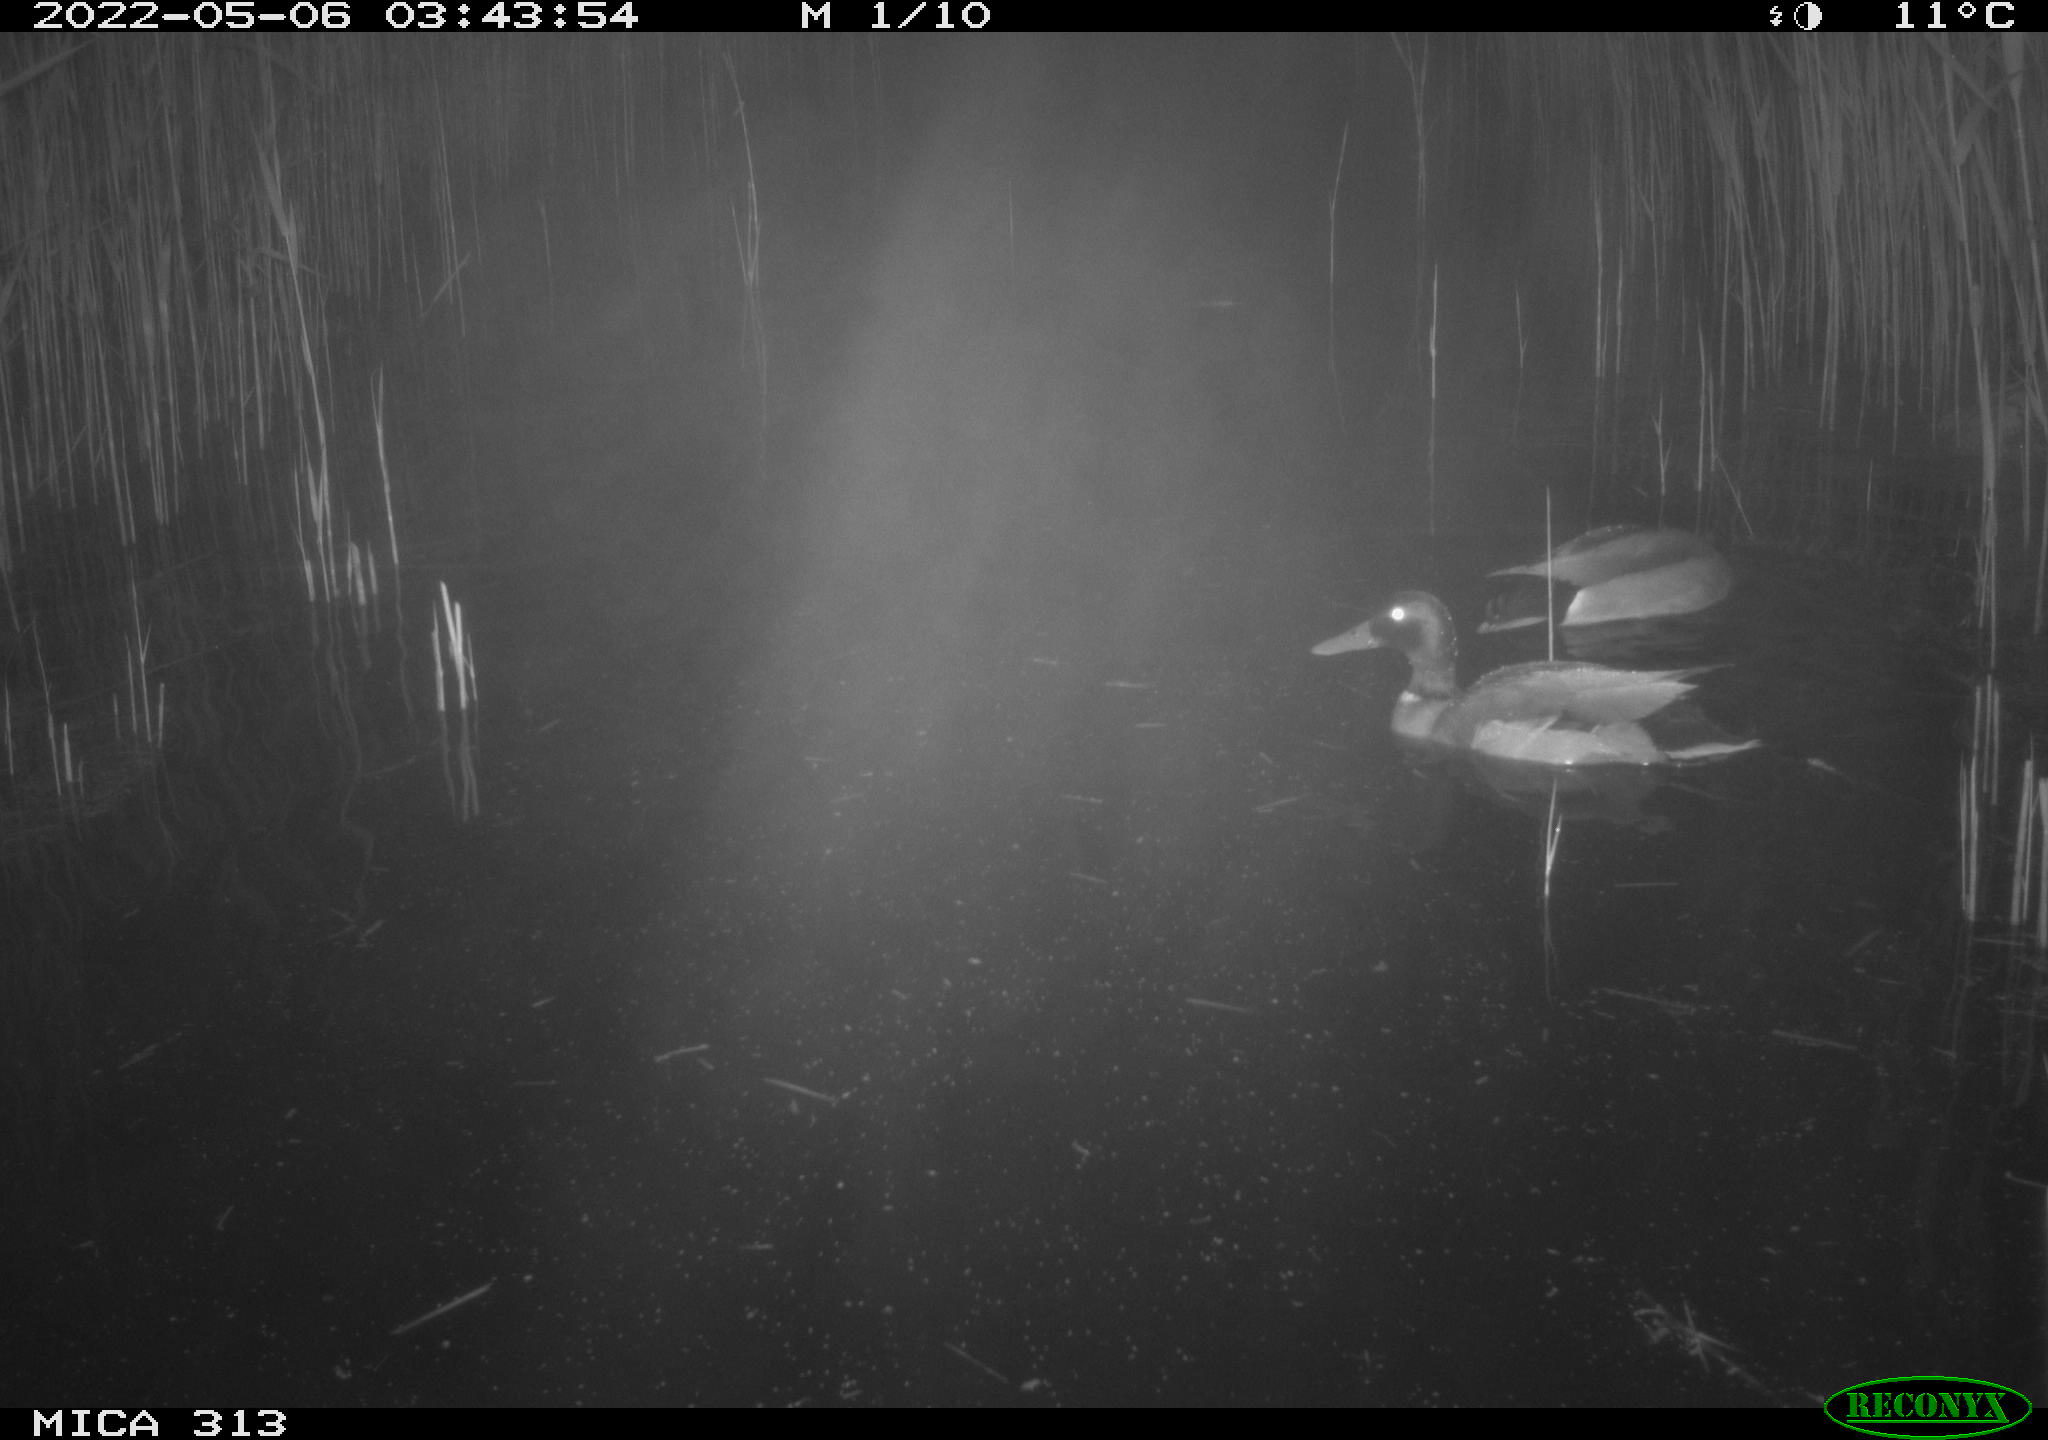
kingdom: Animalia
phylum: Chordata
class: Aves
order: Anseriformes
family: Anatidae
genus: Anas
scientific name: Anas platyrhynchos
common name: Mallard
